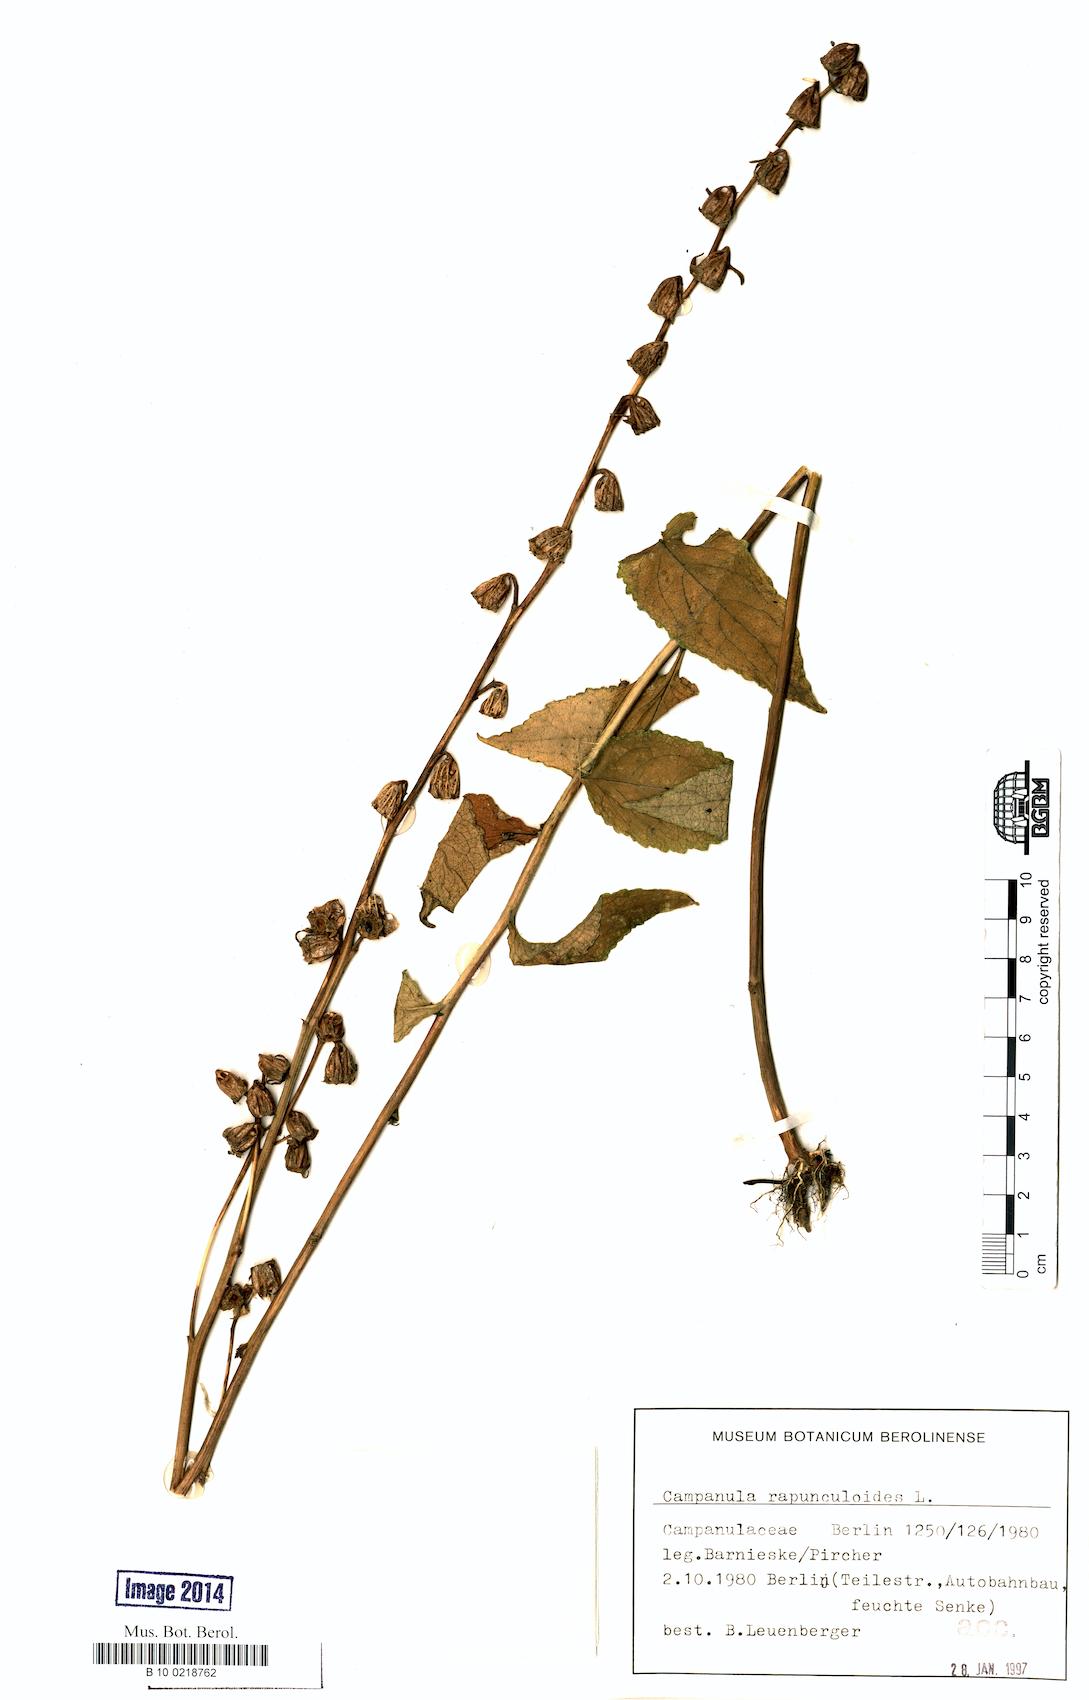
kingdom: Plantae
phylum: Tracheophyta
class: Magnoliopsida
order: Asterales
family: Campanulaceae
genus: Campanula
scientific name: Campanula rapunculoides
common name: Creeping bellflower
